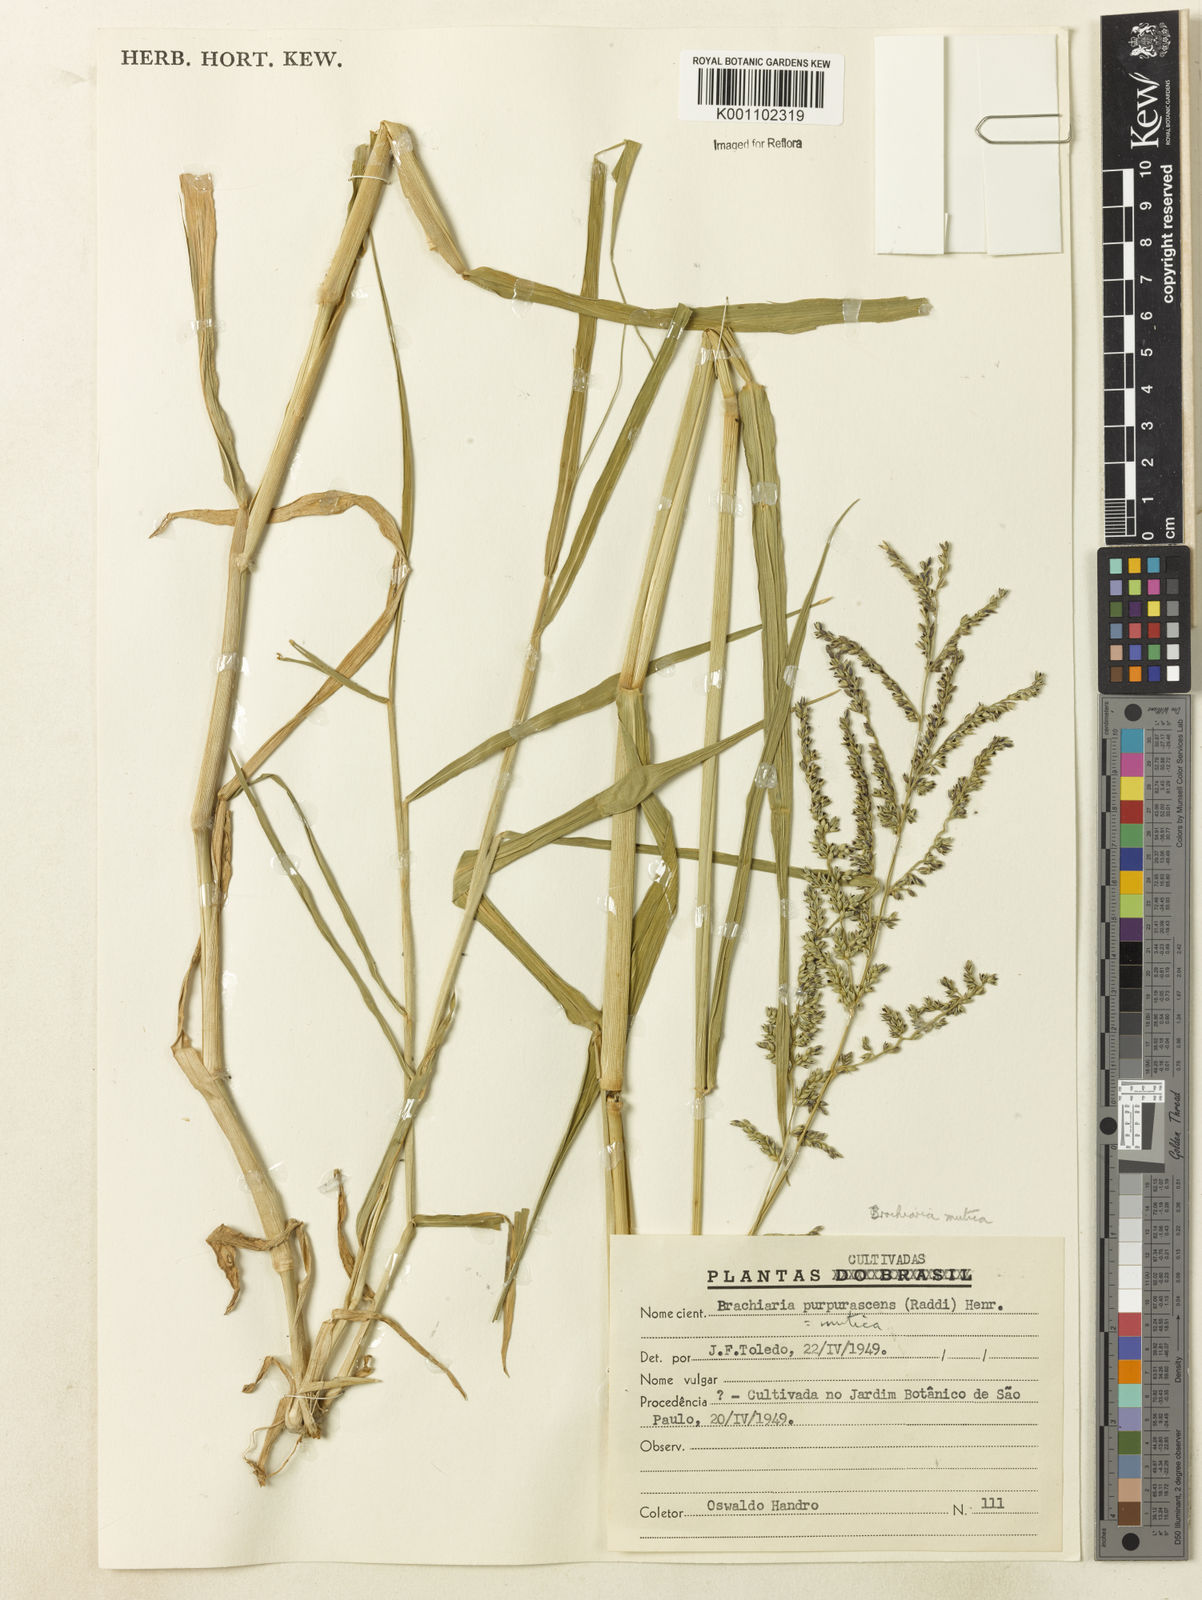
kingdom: Plantae
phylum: Tracheophyta
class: Liliopsida
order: Poales
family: Poaceae
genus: Urochloa
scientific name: Urochloa mutica
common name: Para grass
